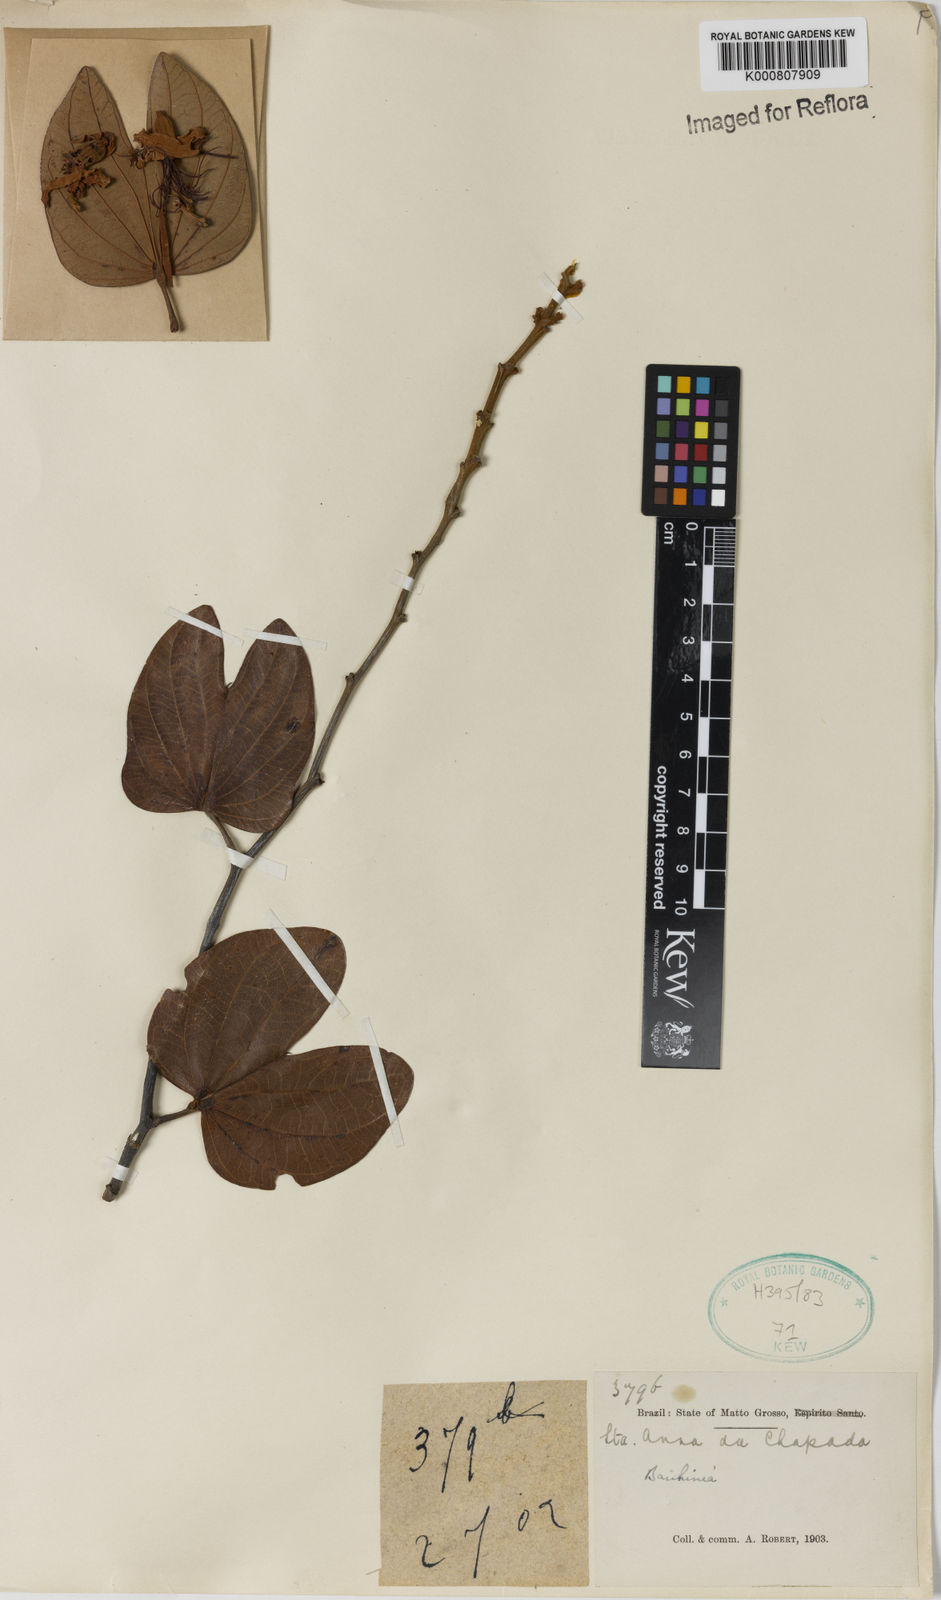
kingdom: Plantae
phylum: Tracheophyta
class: Magnoliopsida
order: Fabales
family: Fabaceae
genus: Bauhinia
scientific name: Bauhinia
